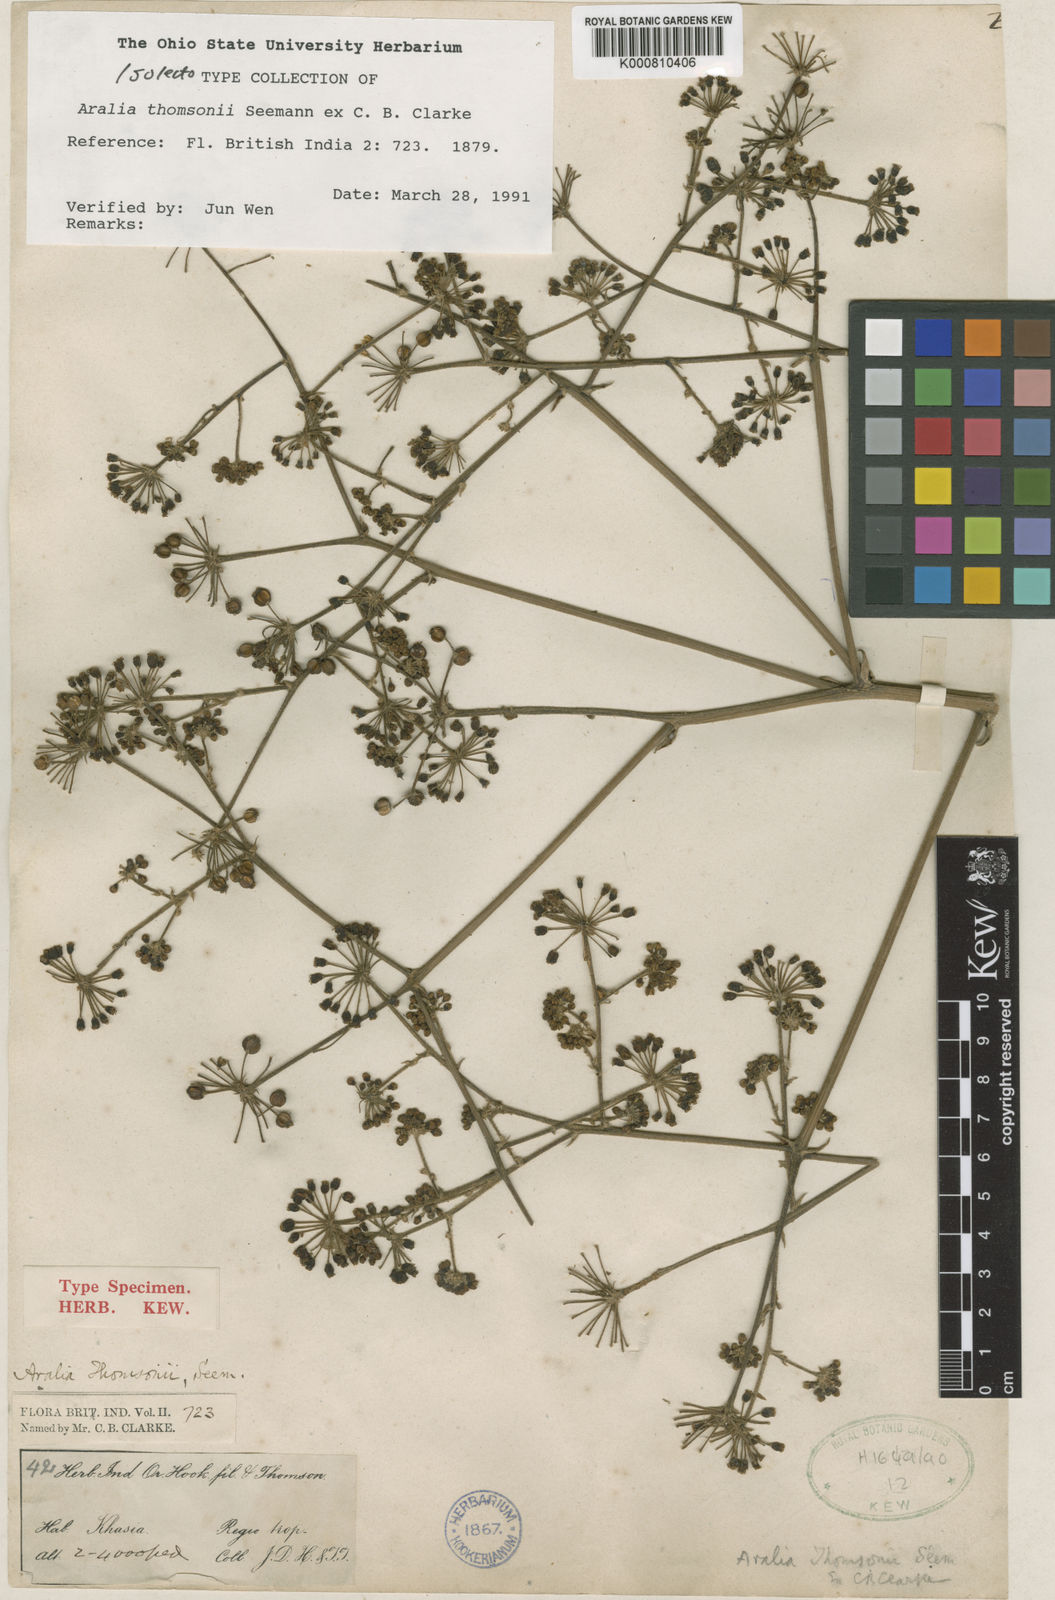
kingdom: Plantae
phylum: Tracheophyta
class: Magnoliopsida
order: Apiales
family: Araliaceae
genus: Aralia
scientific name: Aralia thomsonii
